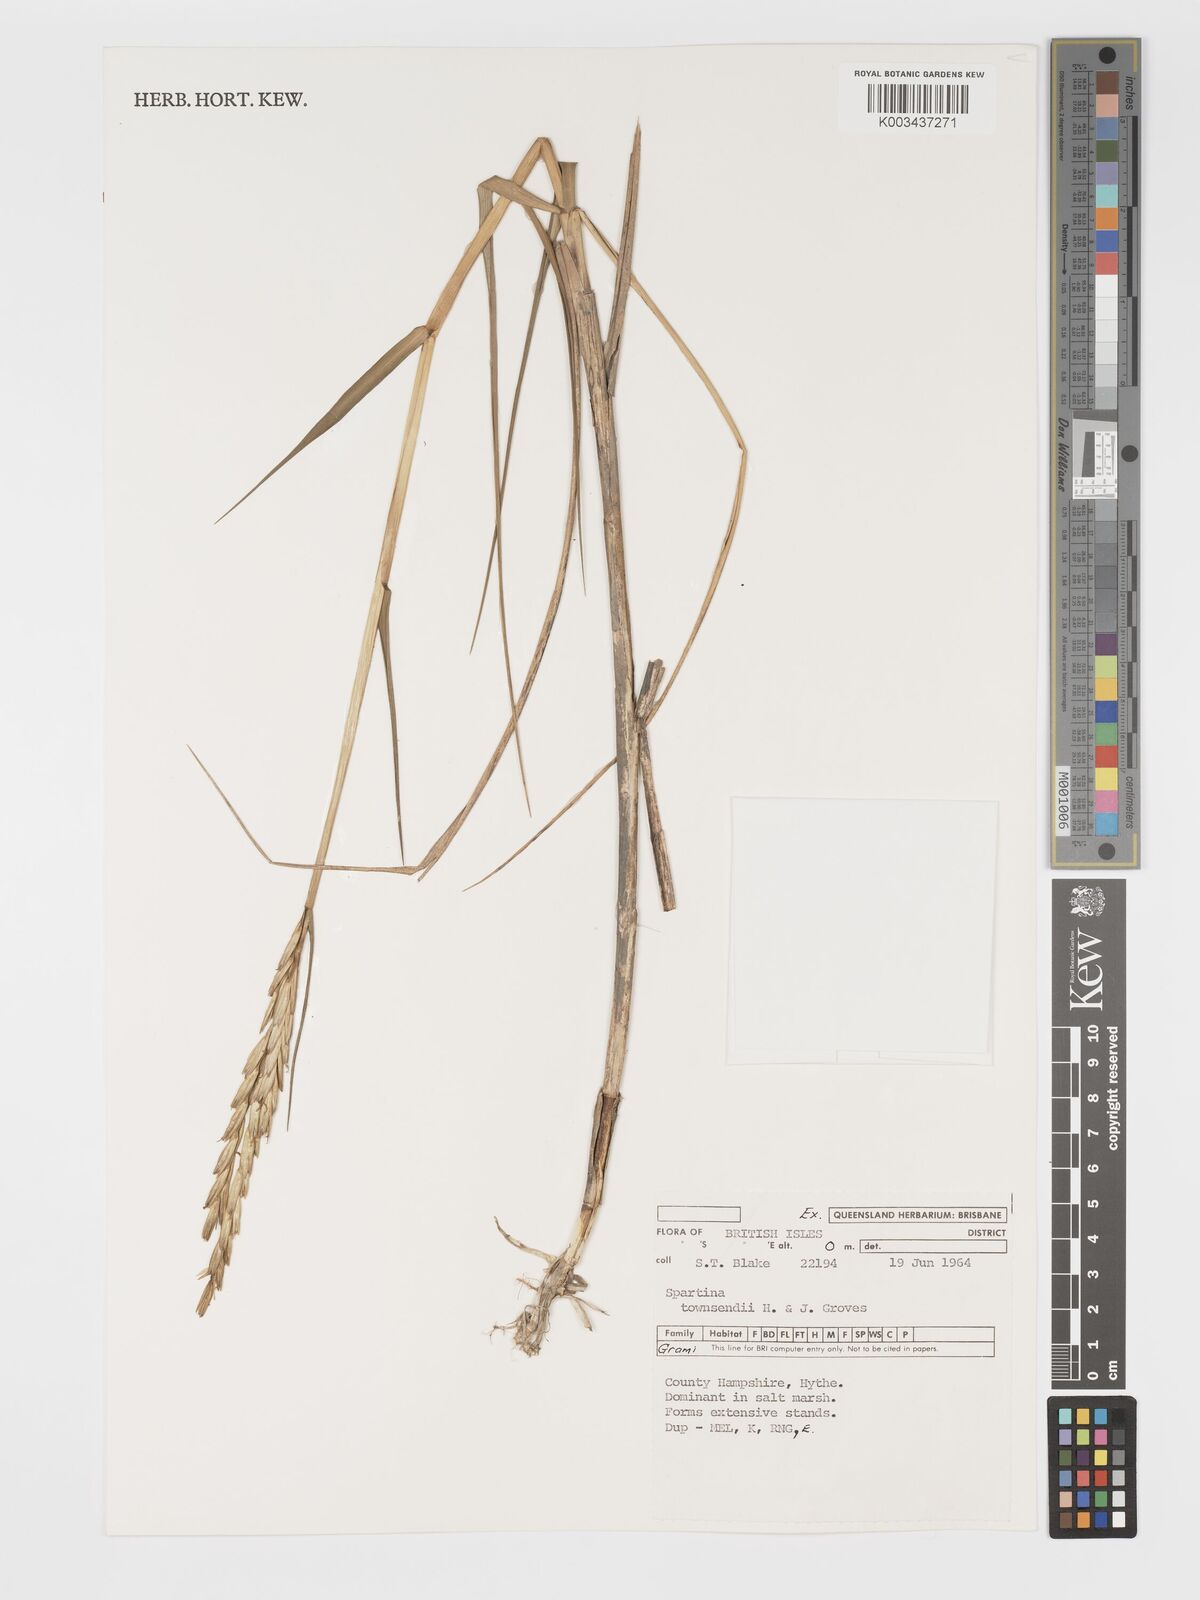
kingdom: Plantae
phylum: Tracheophyta
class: Liliopsida
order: Poales
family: Poaceae
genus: Sporobolus
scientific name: Sporobolus townsendii
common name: Townsend's cordgrass
